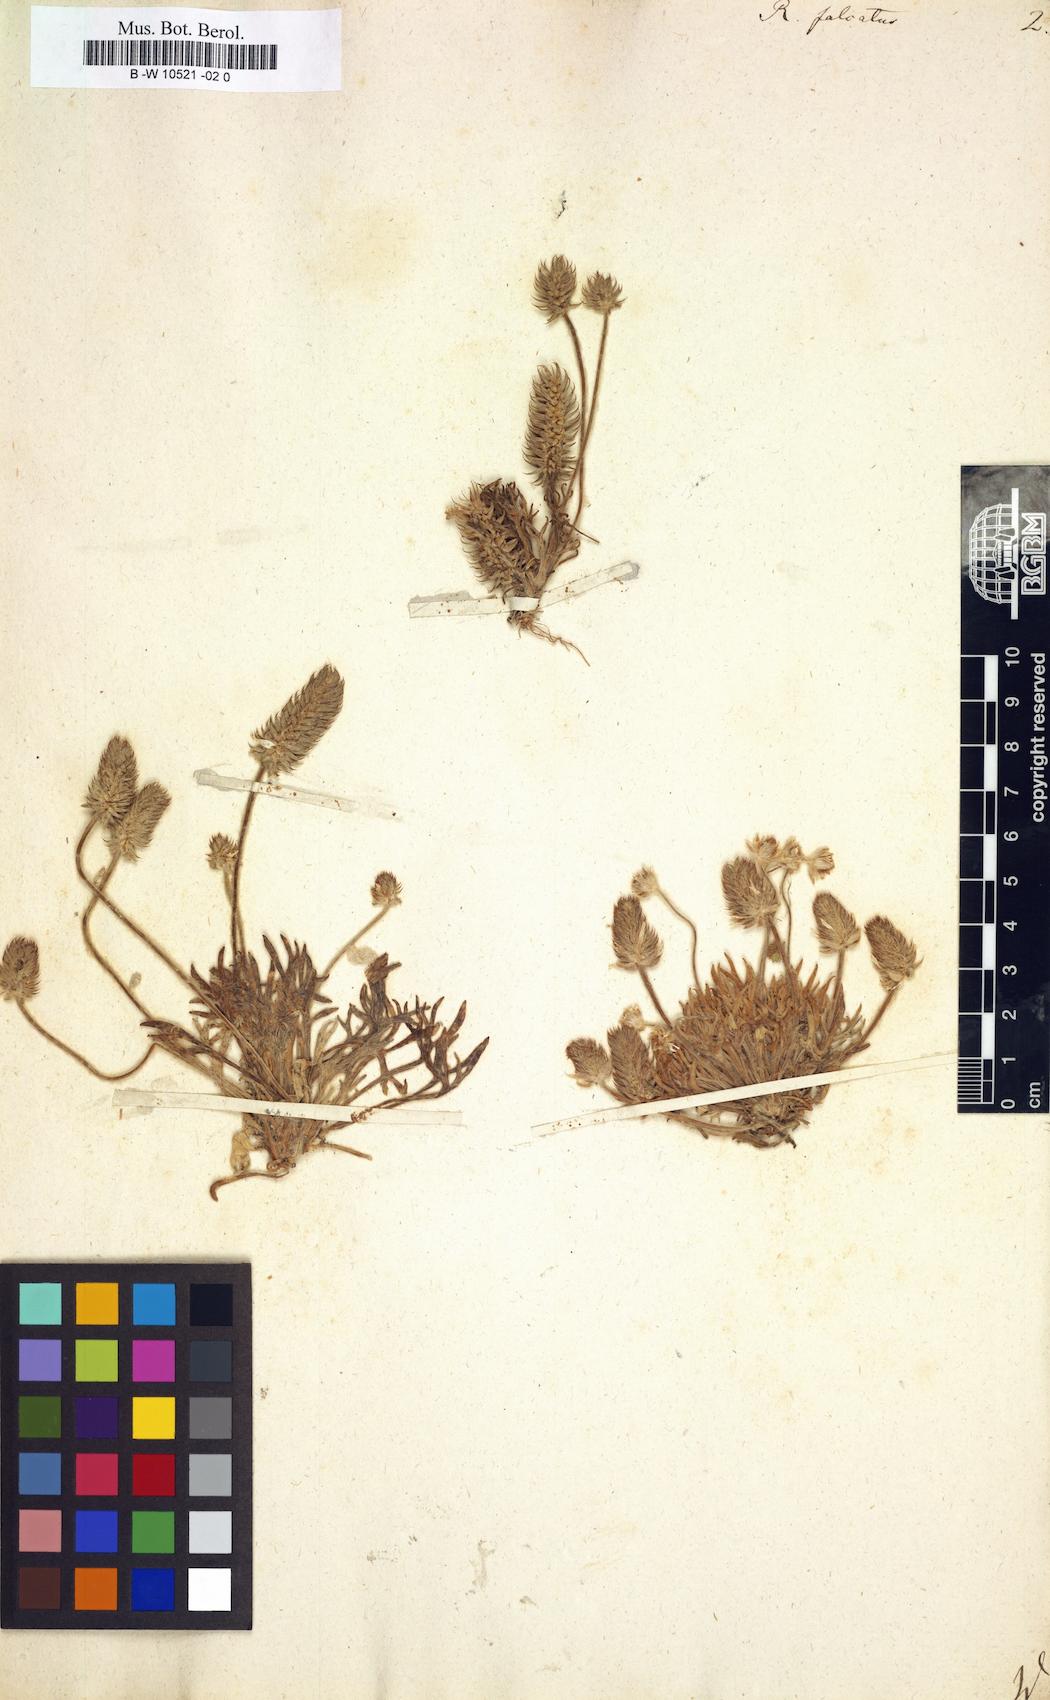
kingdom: Plantae
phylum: Tracheophyta
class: Magnoliopsida
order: Ranunculales
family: Ranunculaceae
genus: Ceratocephala
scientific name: Ceratocephala falcata
